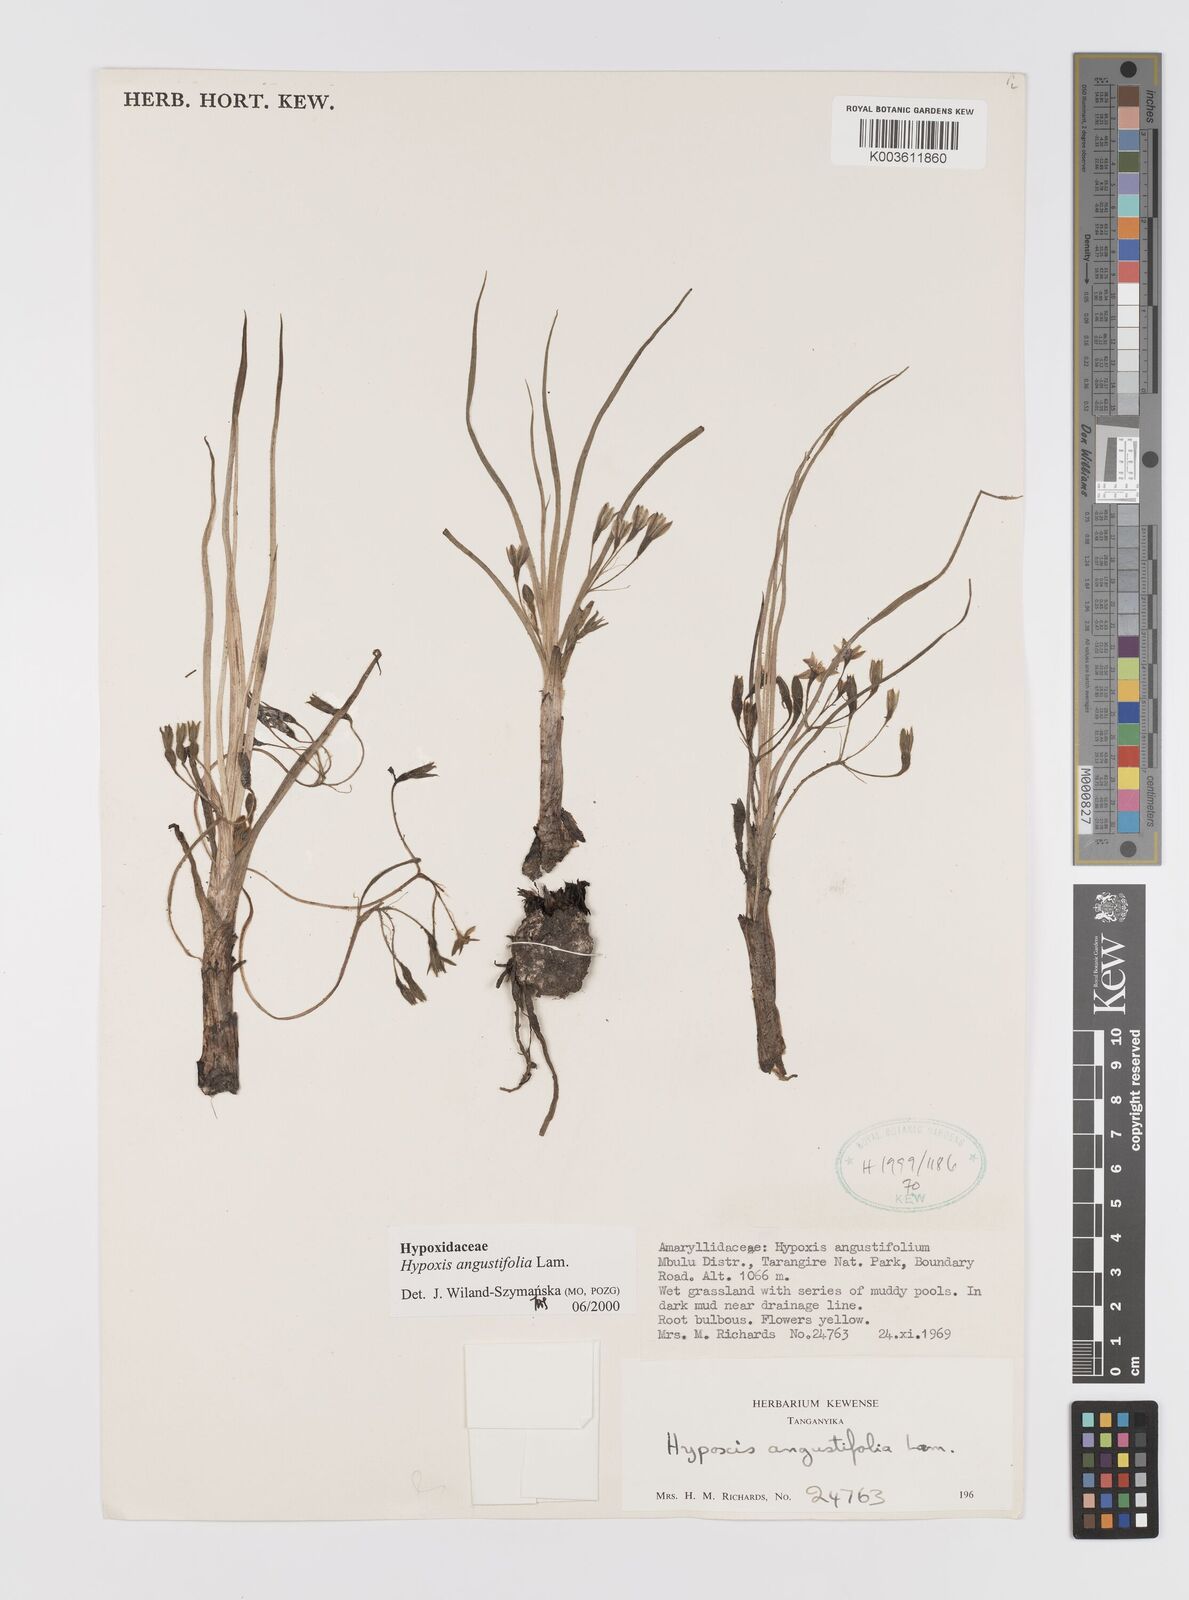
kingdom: Plantae
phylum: Tracheophyta
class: Liliopsida
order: Asparagales
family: Hypoxidaceae
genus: Hypoxis
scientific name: Hypoxis angustifolia
